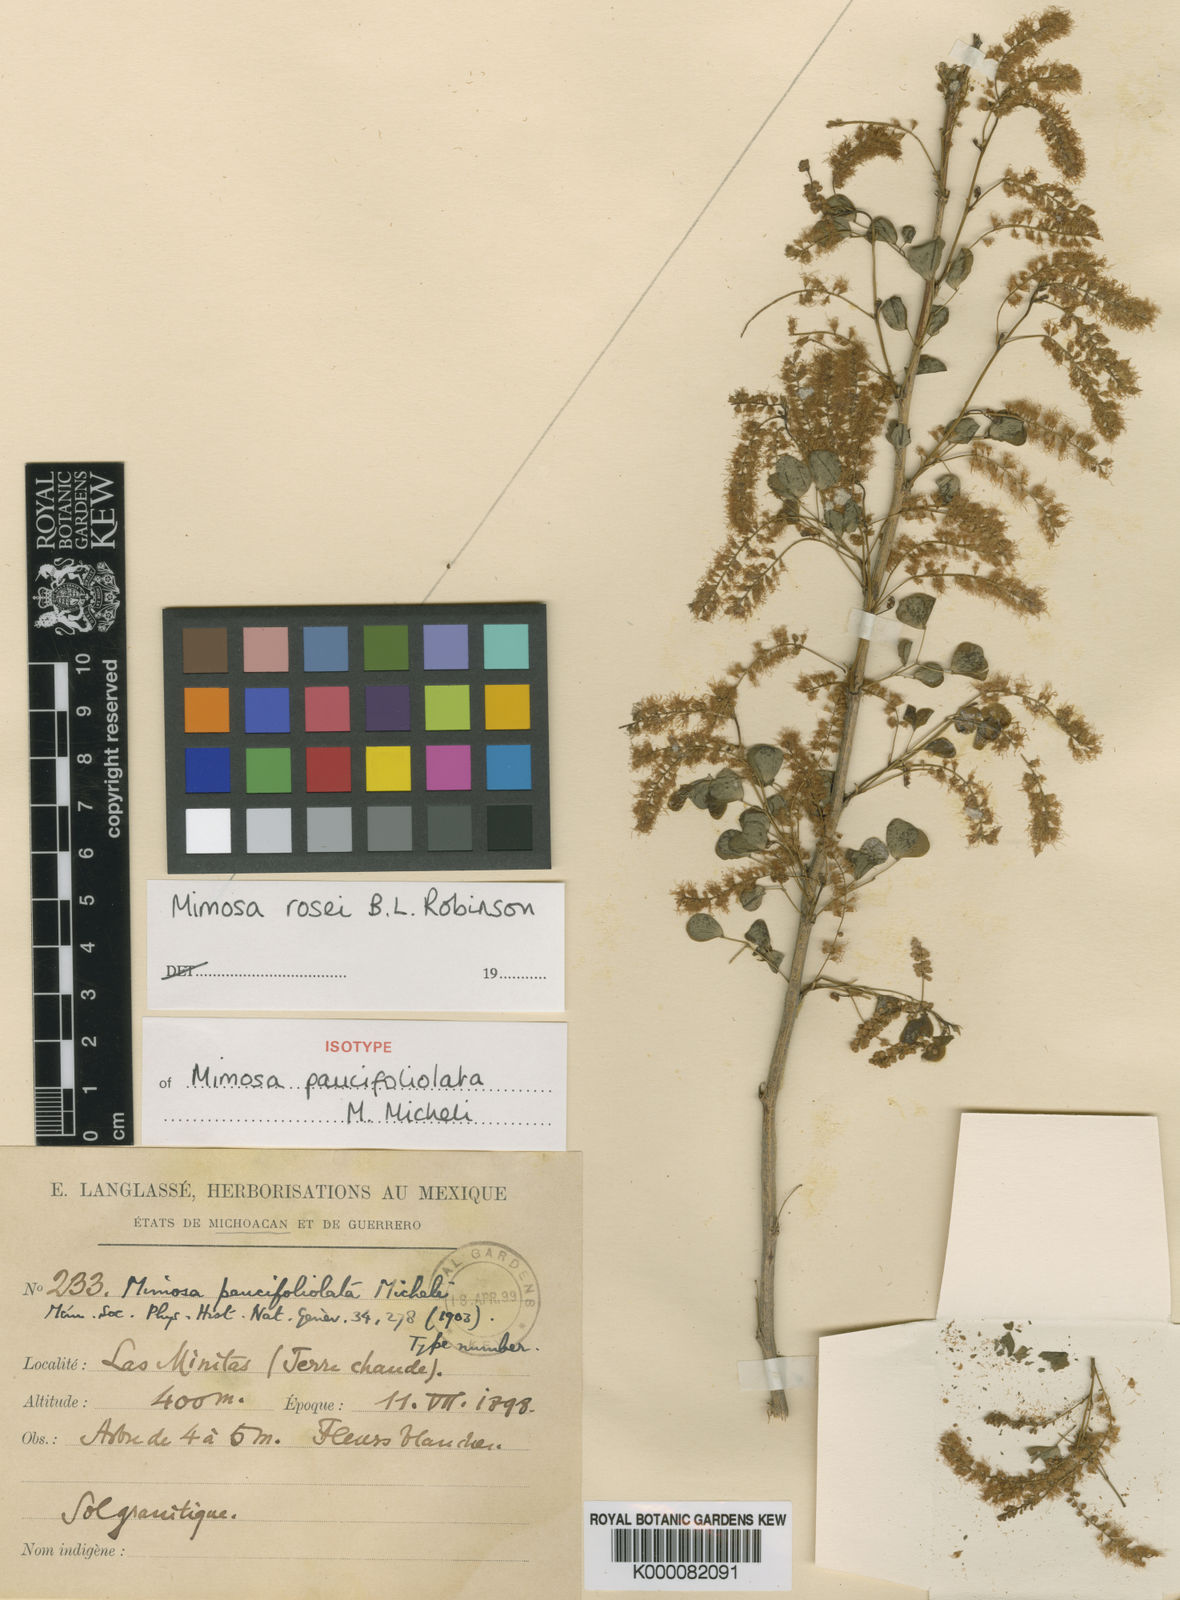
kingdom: Plantae
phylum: Tracheophyta
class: Magnoliopsida
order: Fabales
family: Fabaceae
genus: Mimosa
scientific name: Mimosa rosei
